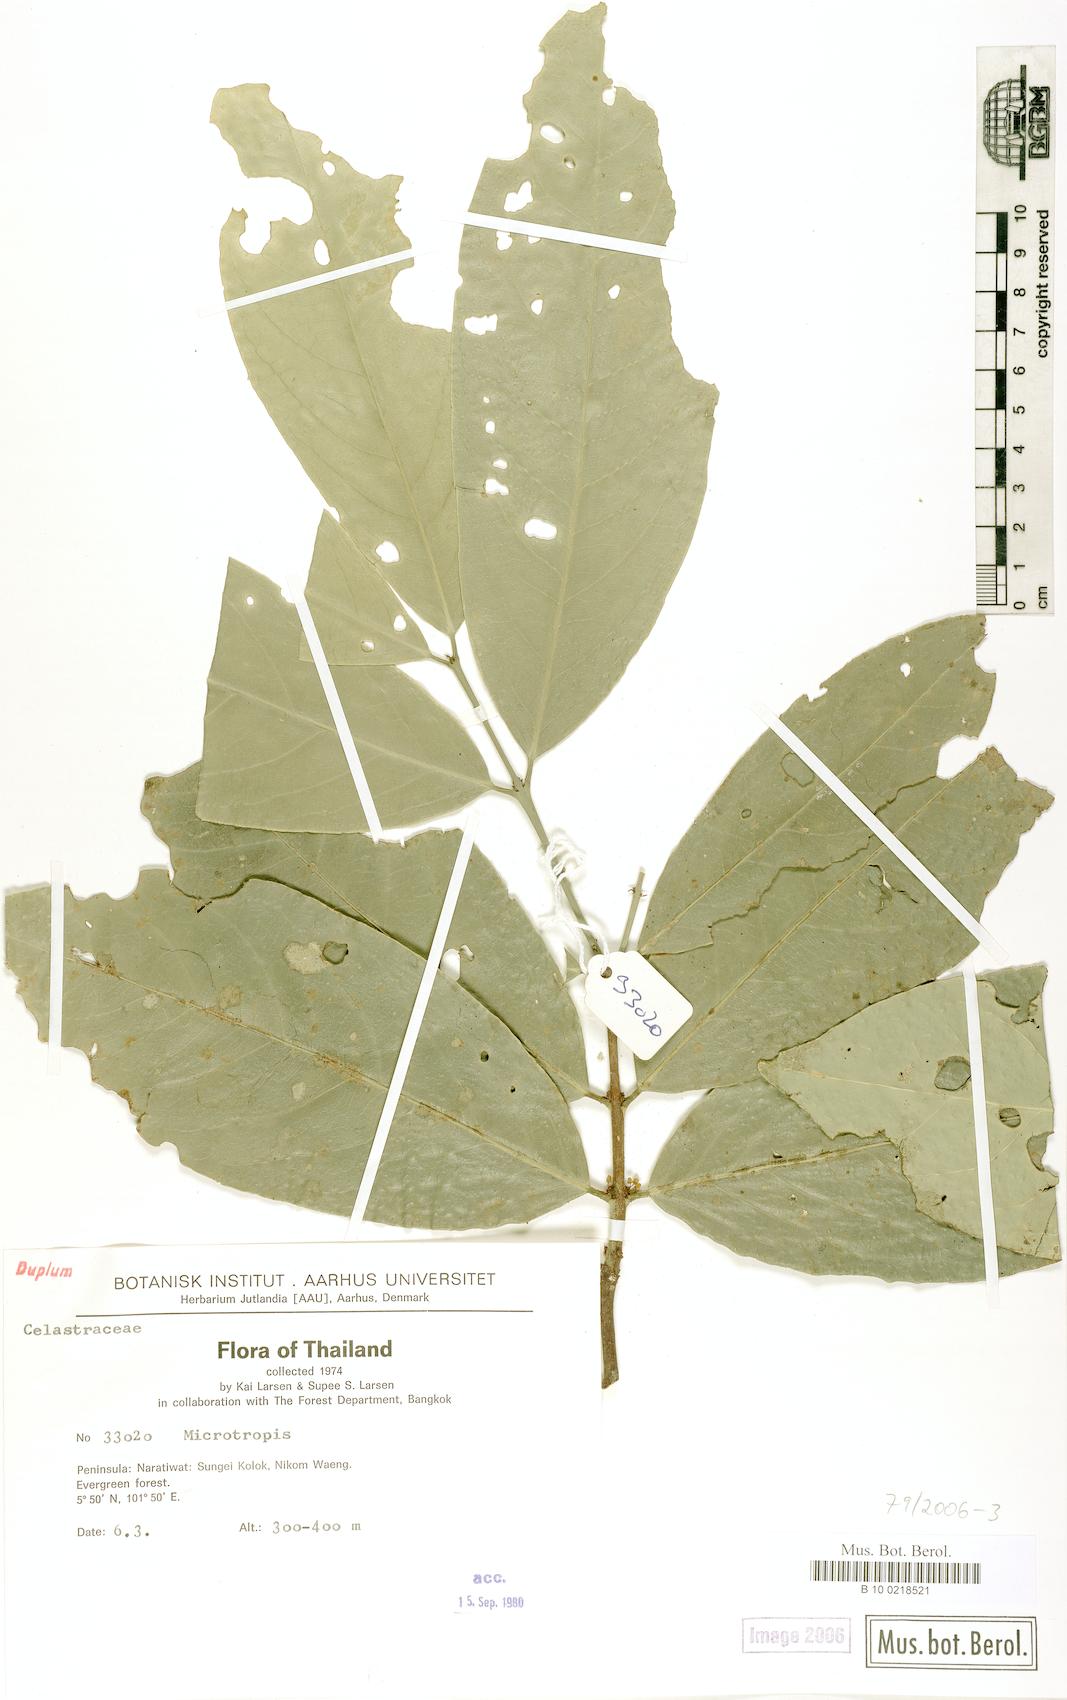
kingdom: Plantae
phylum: Tracheophyta
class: Magnoliopsida
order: Celastrales
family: Celastraceae
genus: Microtropis
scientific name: Microtropis
